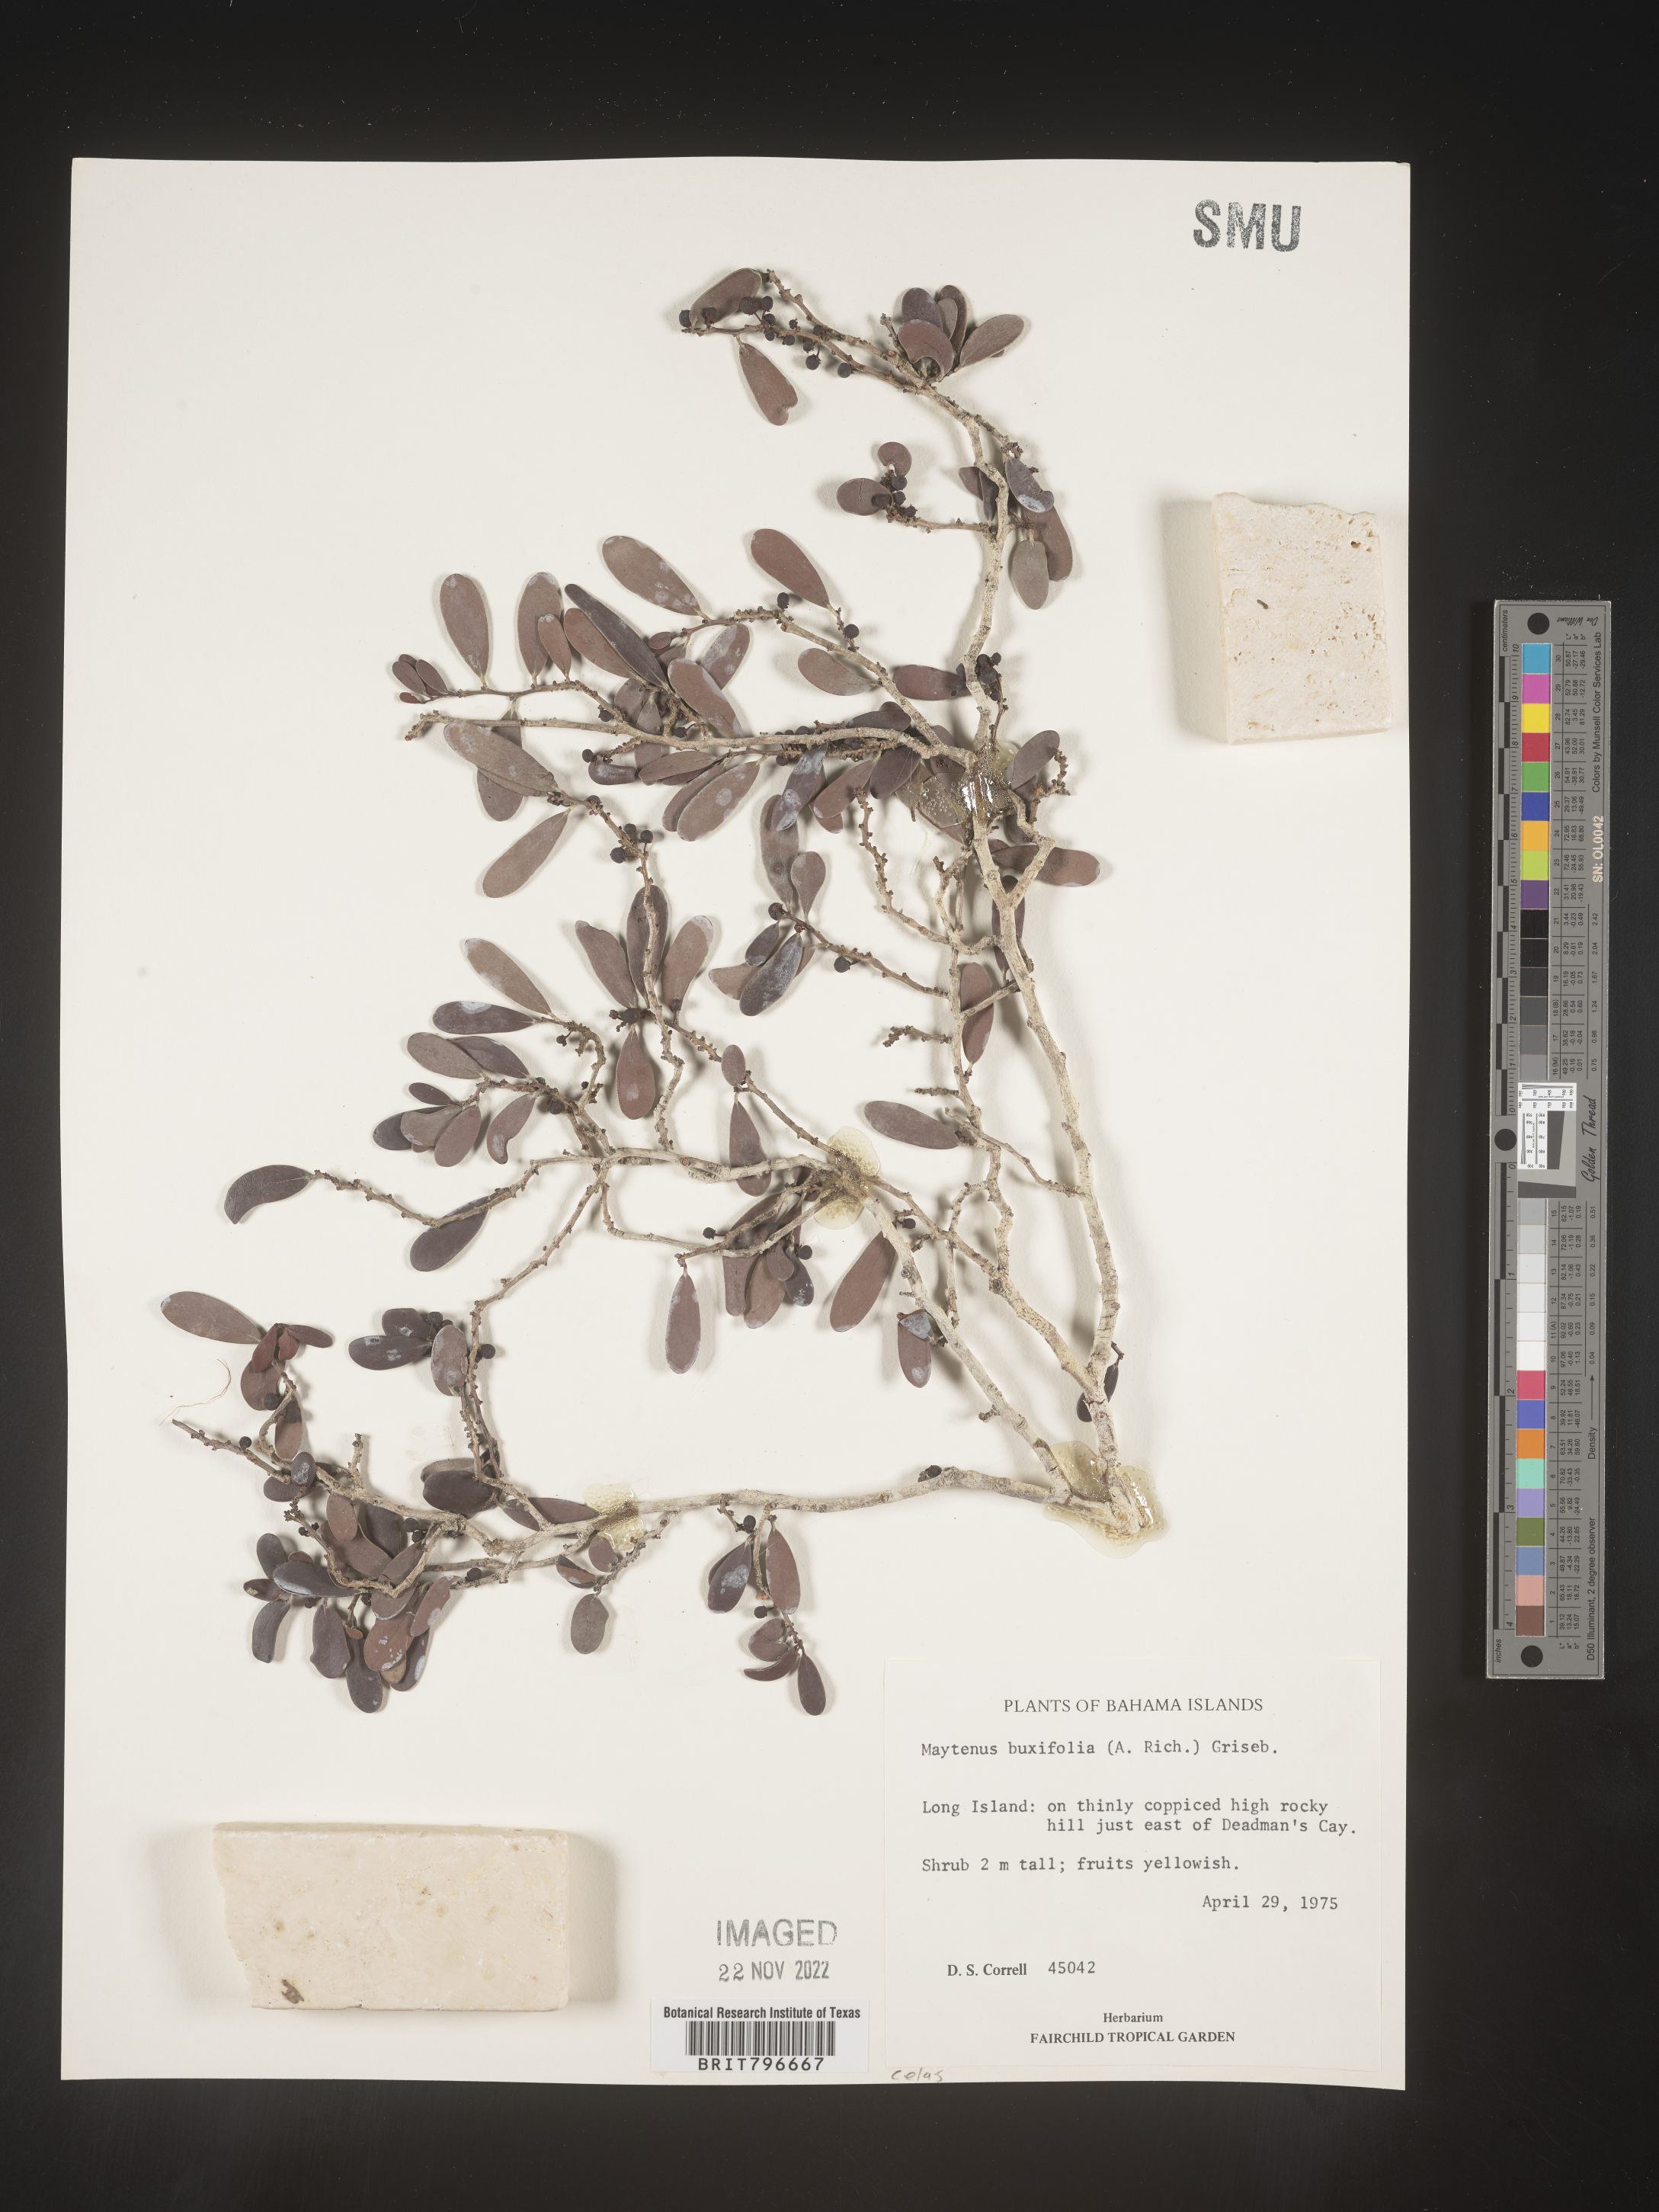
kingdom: Plantae
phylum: Tracheophyta
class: Magnoliopsida
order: Celastrales
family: Celastraceae
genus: Maytenus
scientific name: Maytenus
